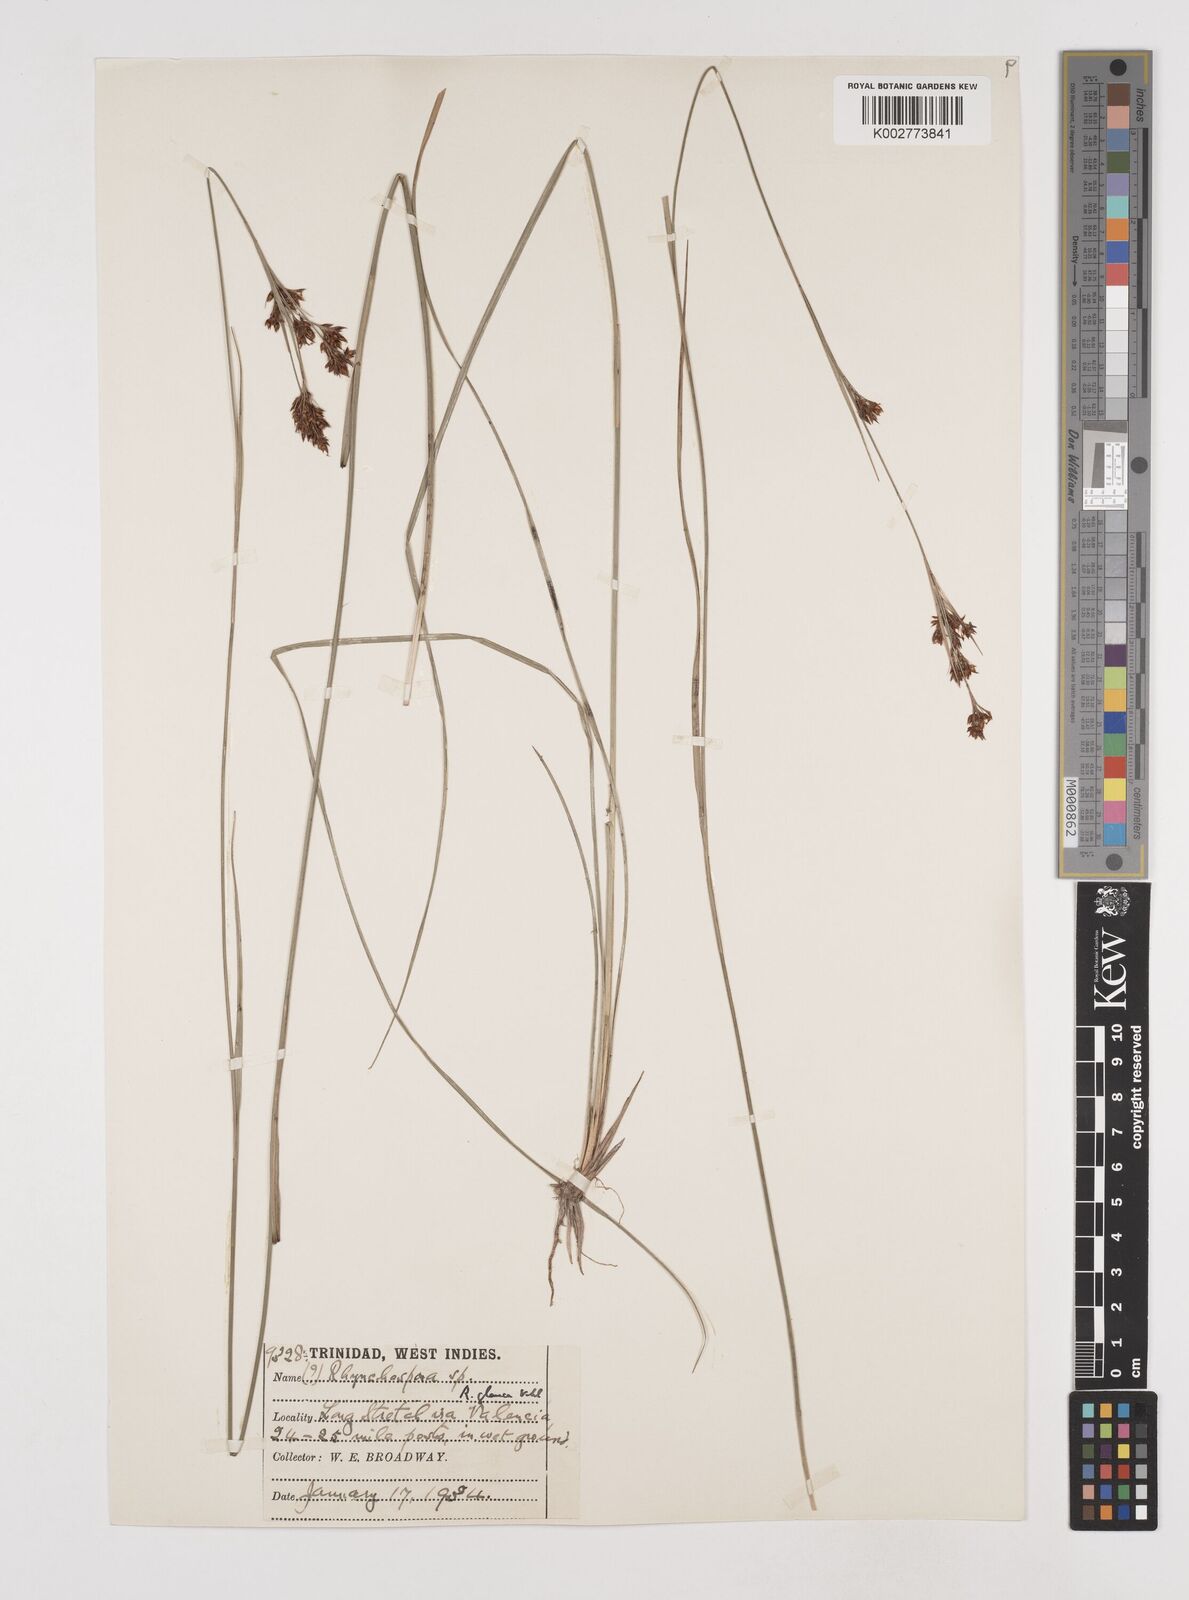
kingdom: Plantae
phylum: Tracheophyta
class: Liliopsida
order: Poales
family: Cyperaceae
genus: Rhynchospora
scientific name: Rhynchospora rugosa
